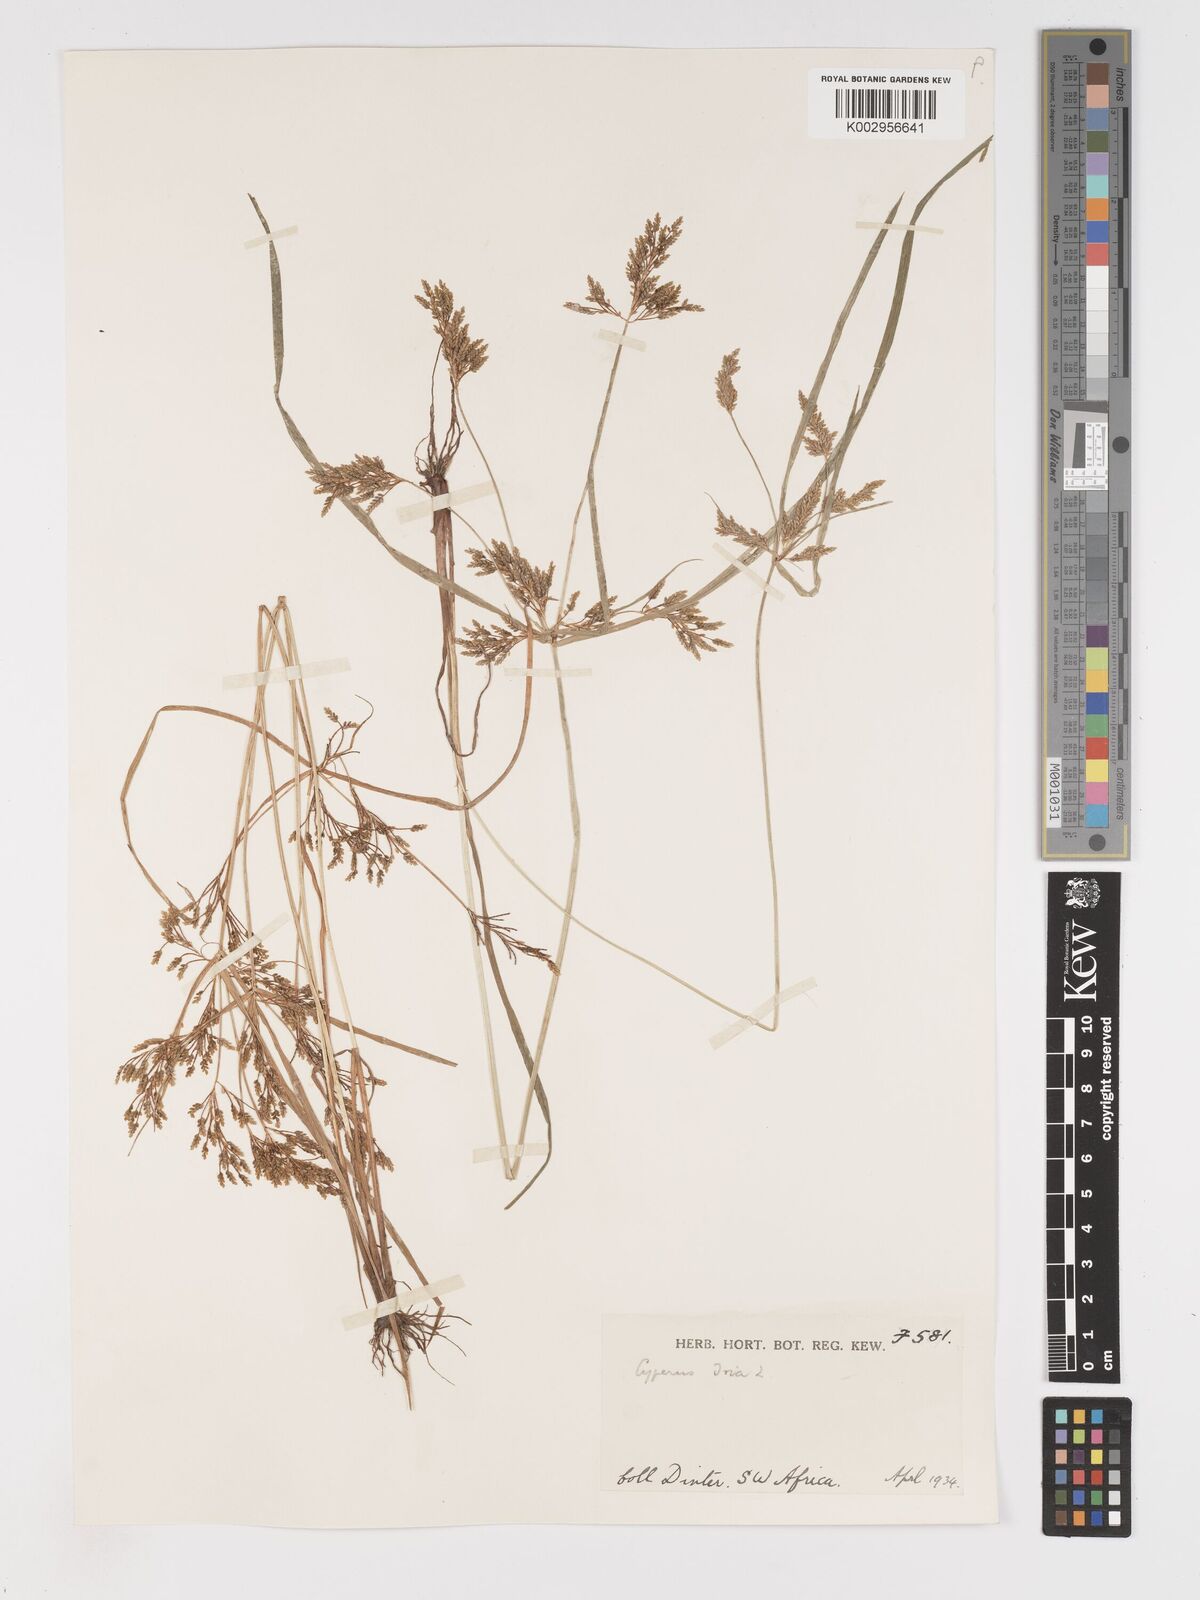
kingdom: Plantae
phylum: Tracheophyta
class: Liliopsida
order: Poales
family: Cyperaceae
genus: Cyperus
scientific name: Cyperus iria
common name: Ricefield flatsedge
